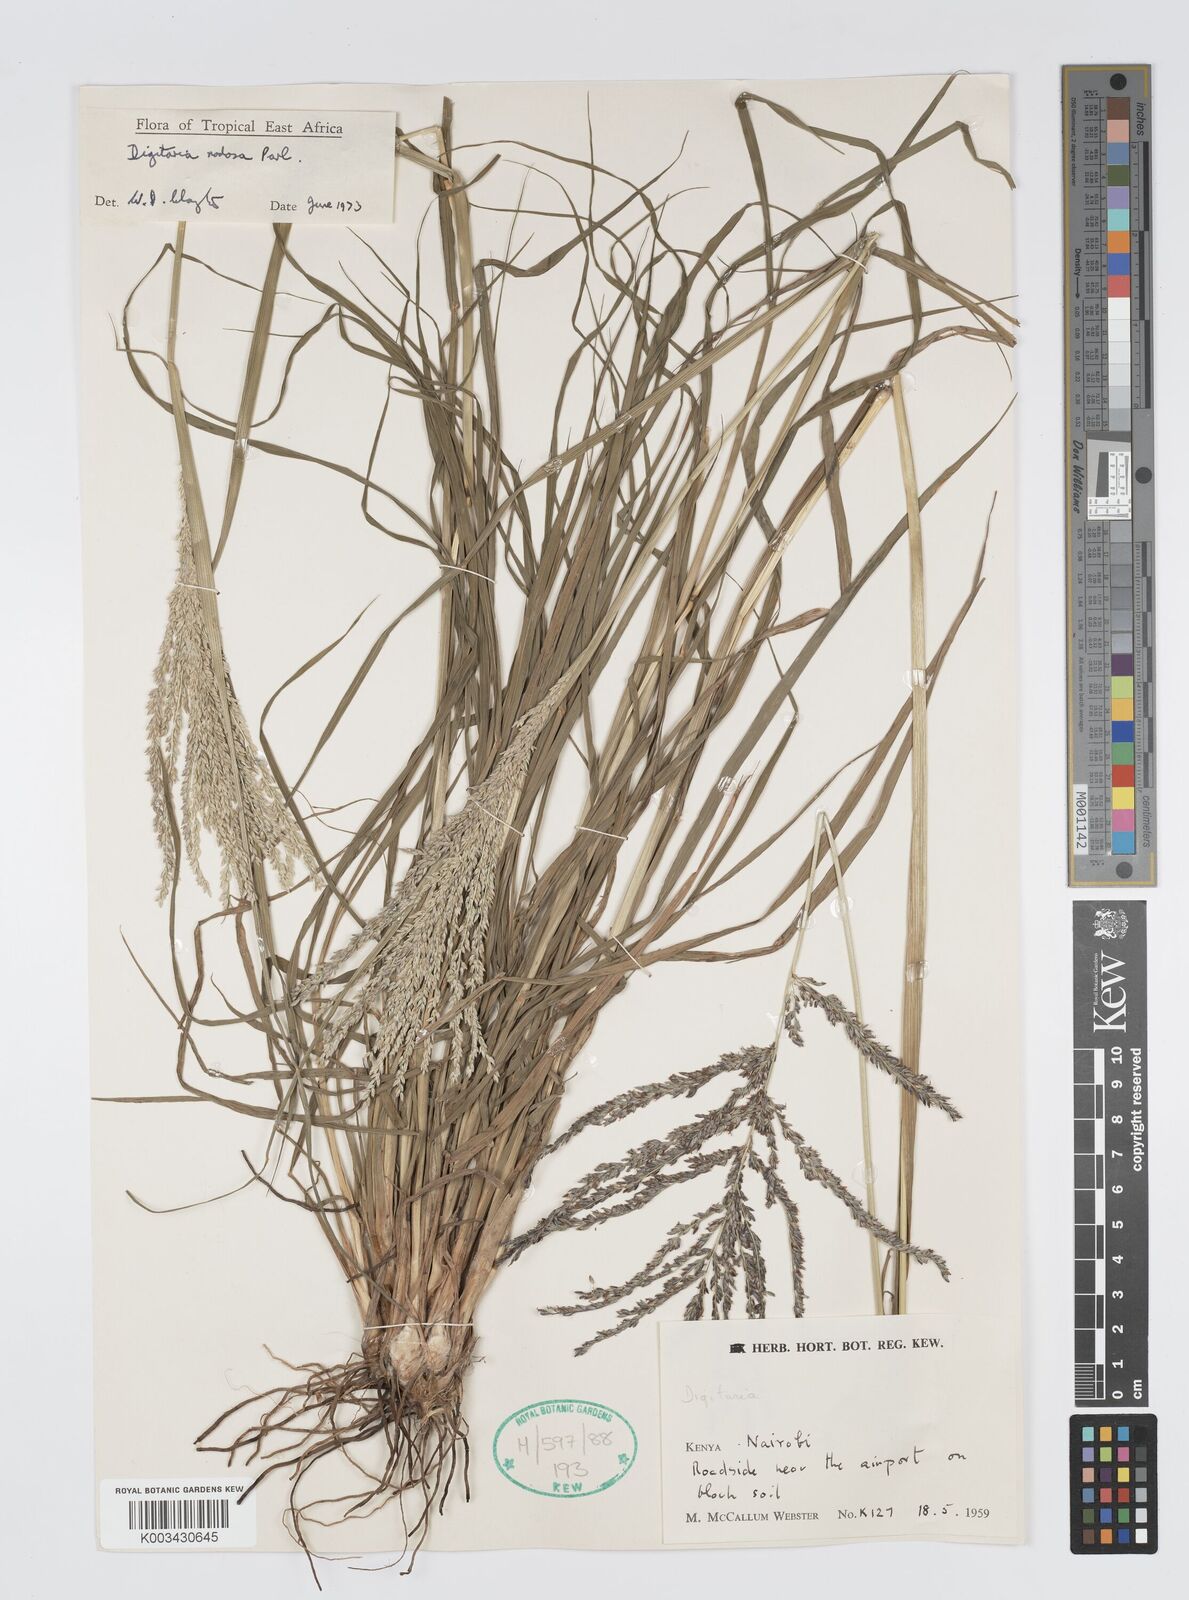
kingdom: Plantae
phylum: Tracheophyta
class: Liliopsida
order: Poales
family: Poaceae
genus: Digitaria
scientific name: Digitaria nodosa
